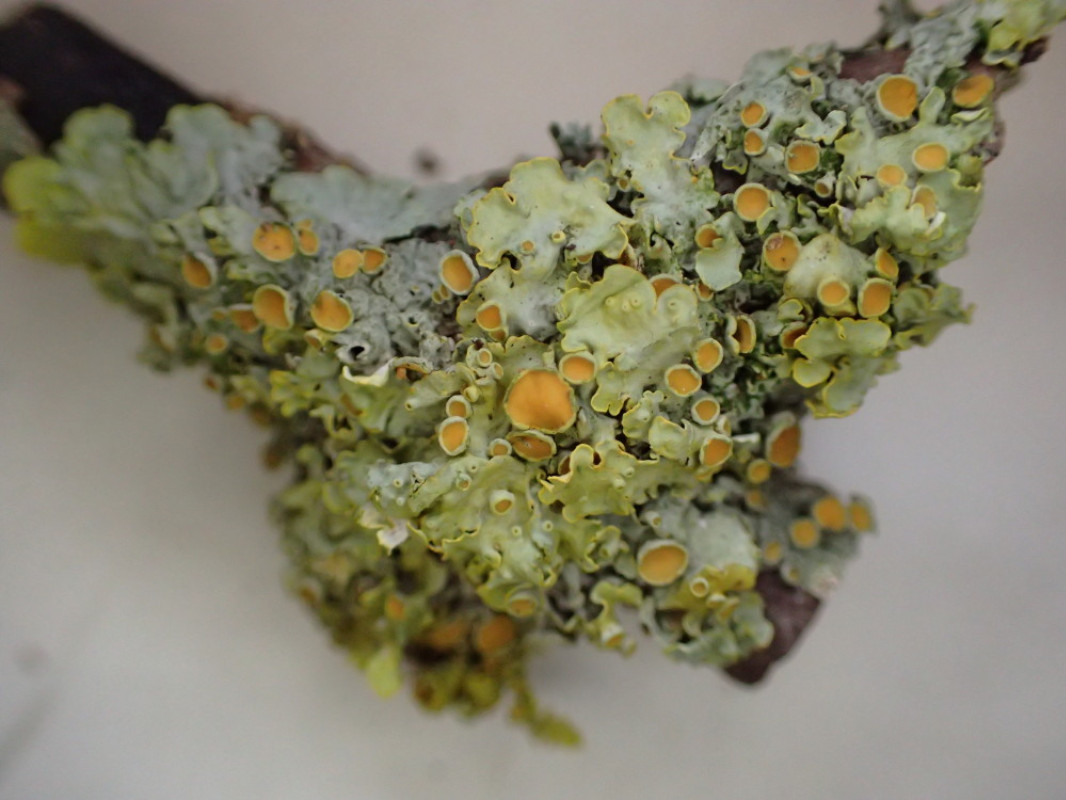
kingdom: Fungi
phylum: Ascomycota
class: Lecanoromycetes
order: Teloschistales
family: Teloschistaceae
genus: Xanthoria
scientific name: Xanthoria parietina
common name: almindelig væggelav
